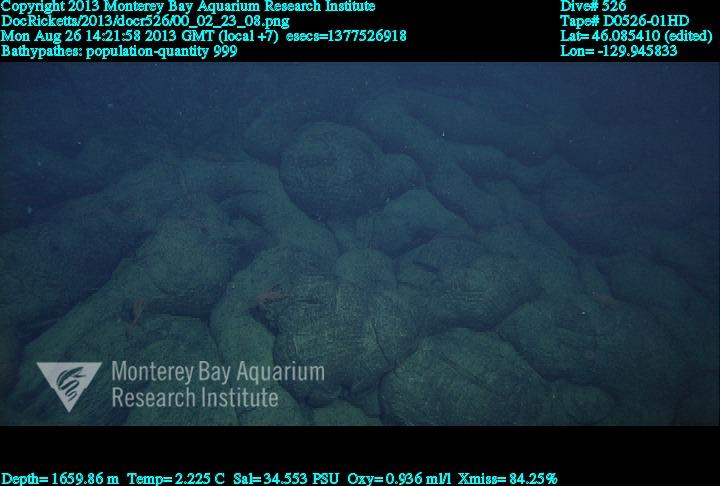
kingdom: Animalia
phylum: Cnidaria
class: Anthozoa
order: Antipatharia
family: Schizopathidae
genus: Bathypathes
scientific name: Bathypathes
